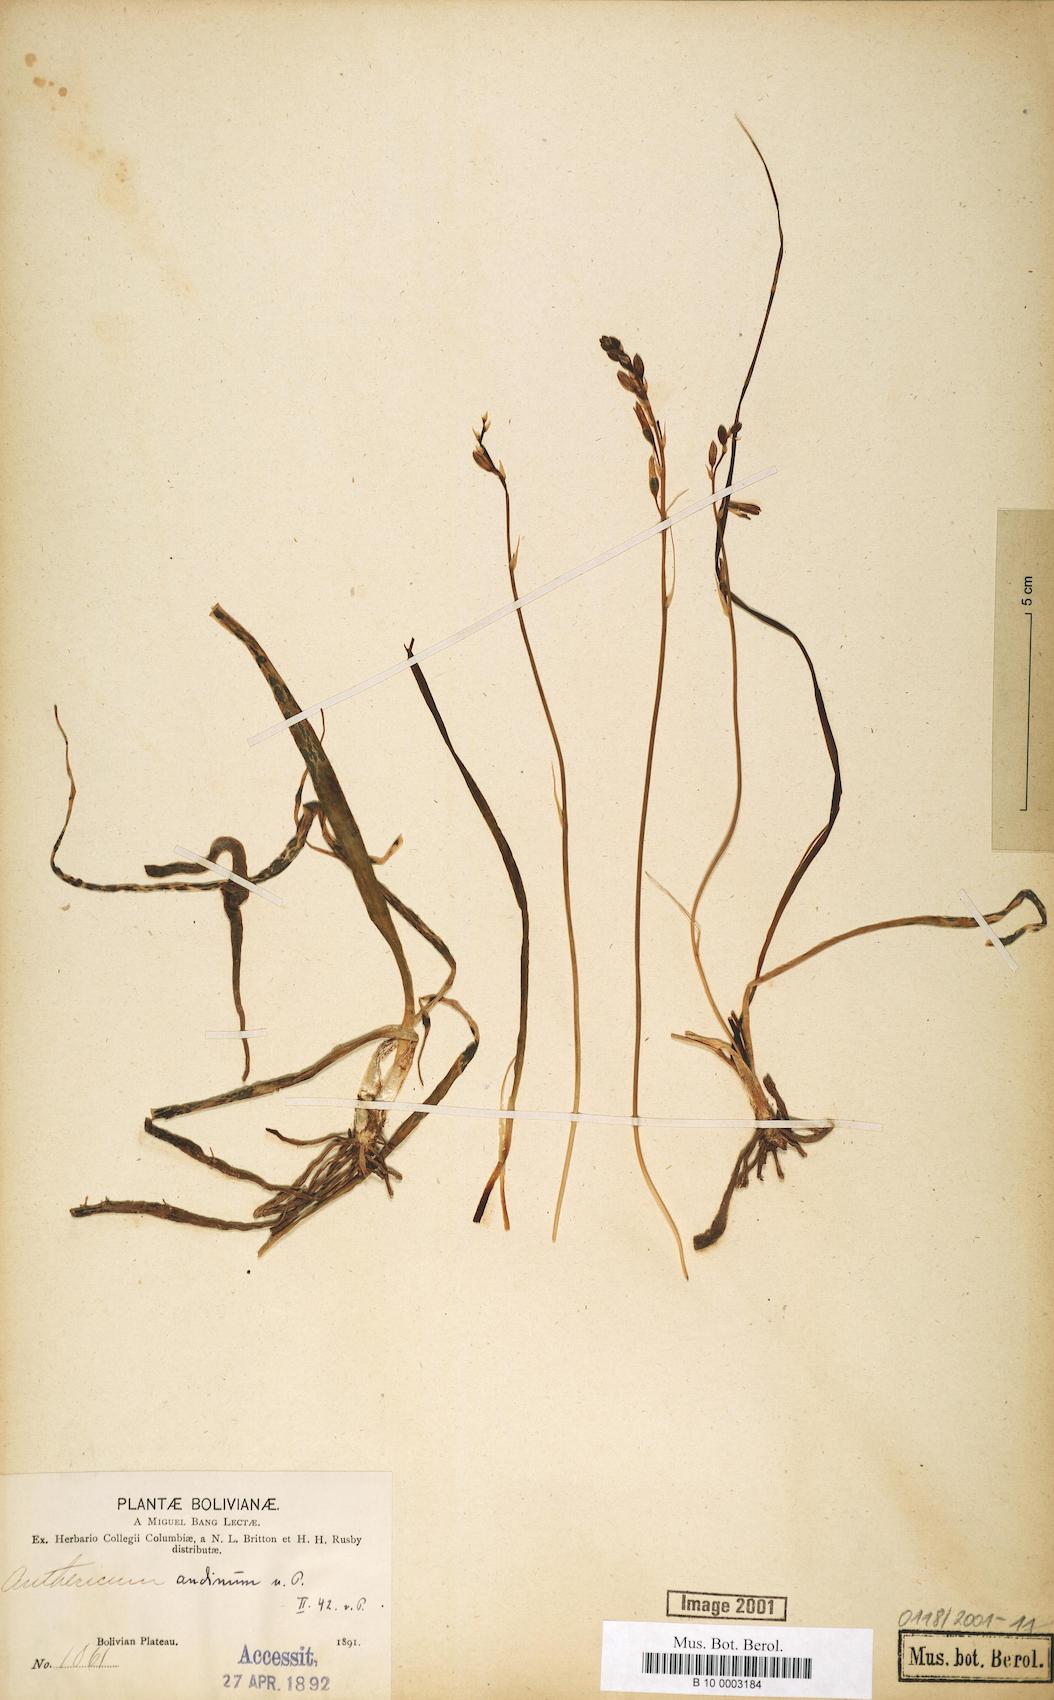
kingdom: Plantae
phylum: Tracheophyta
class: Liliopsida
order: Asparagales
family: Asparagaceae
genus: Anthericum
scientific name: Anthericum
